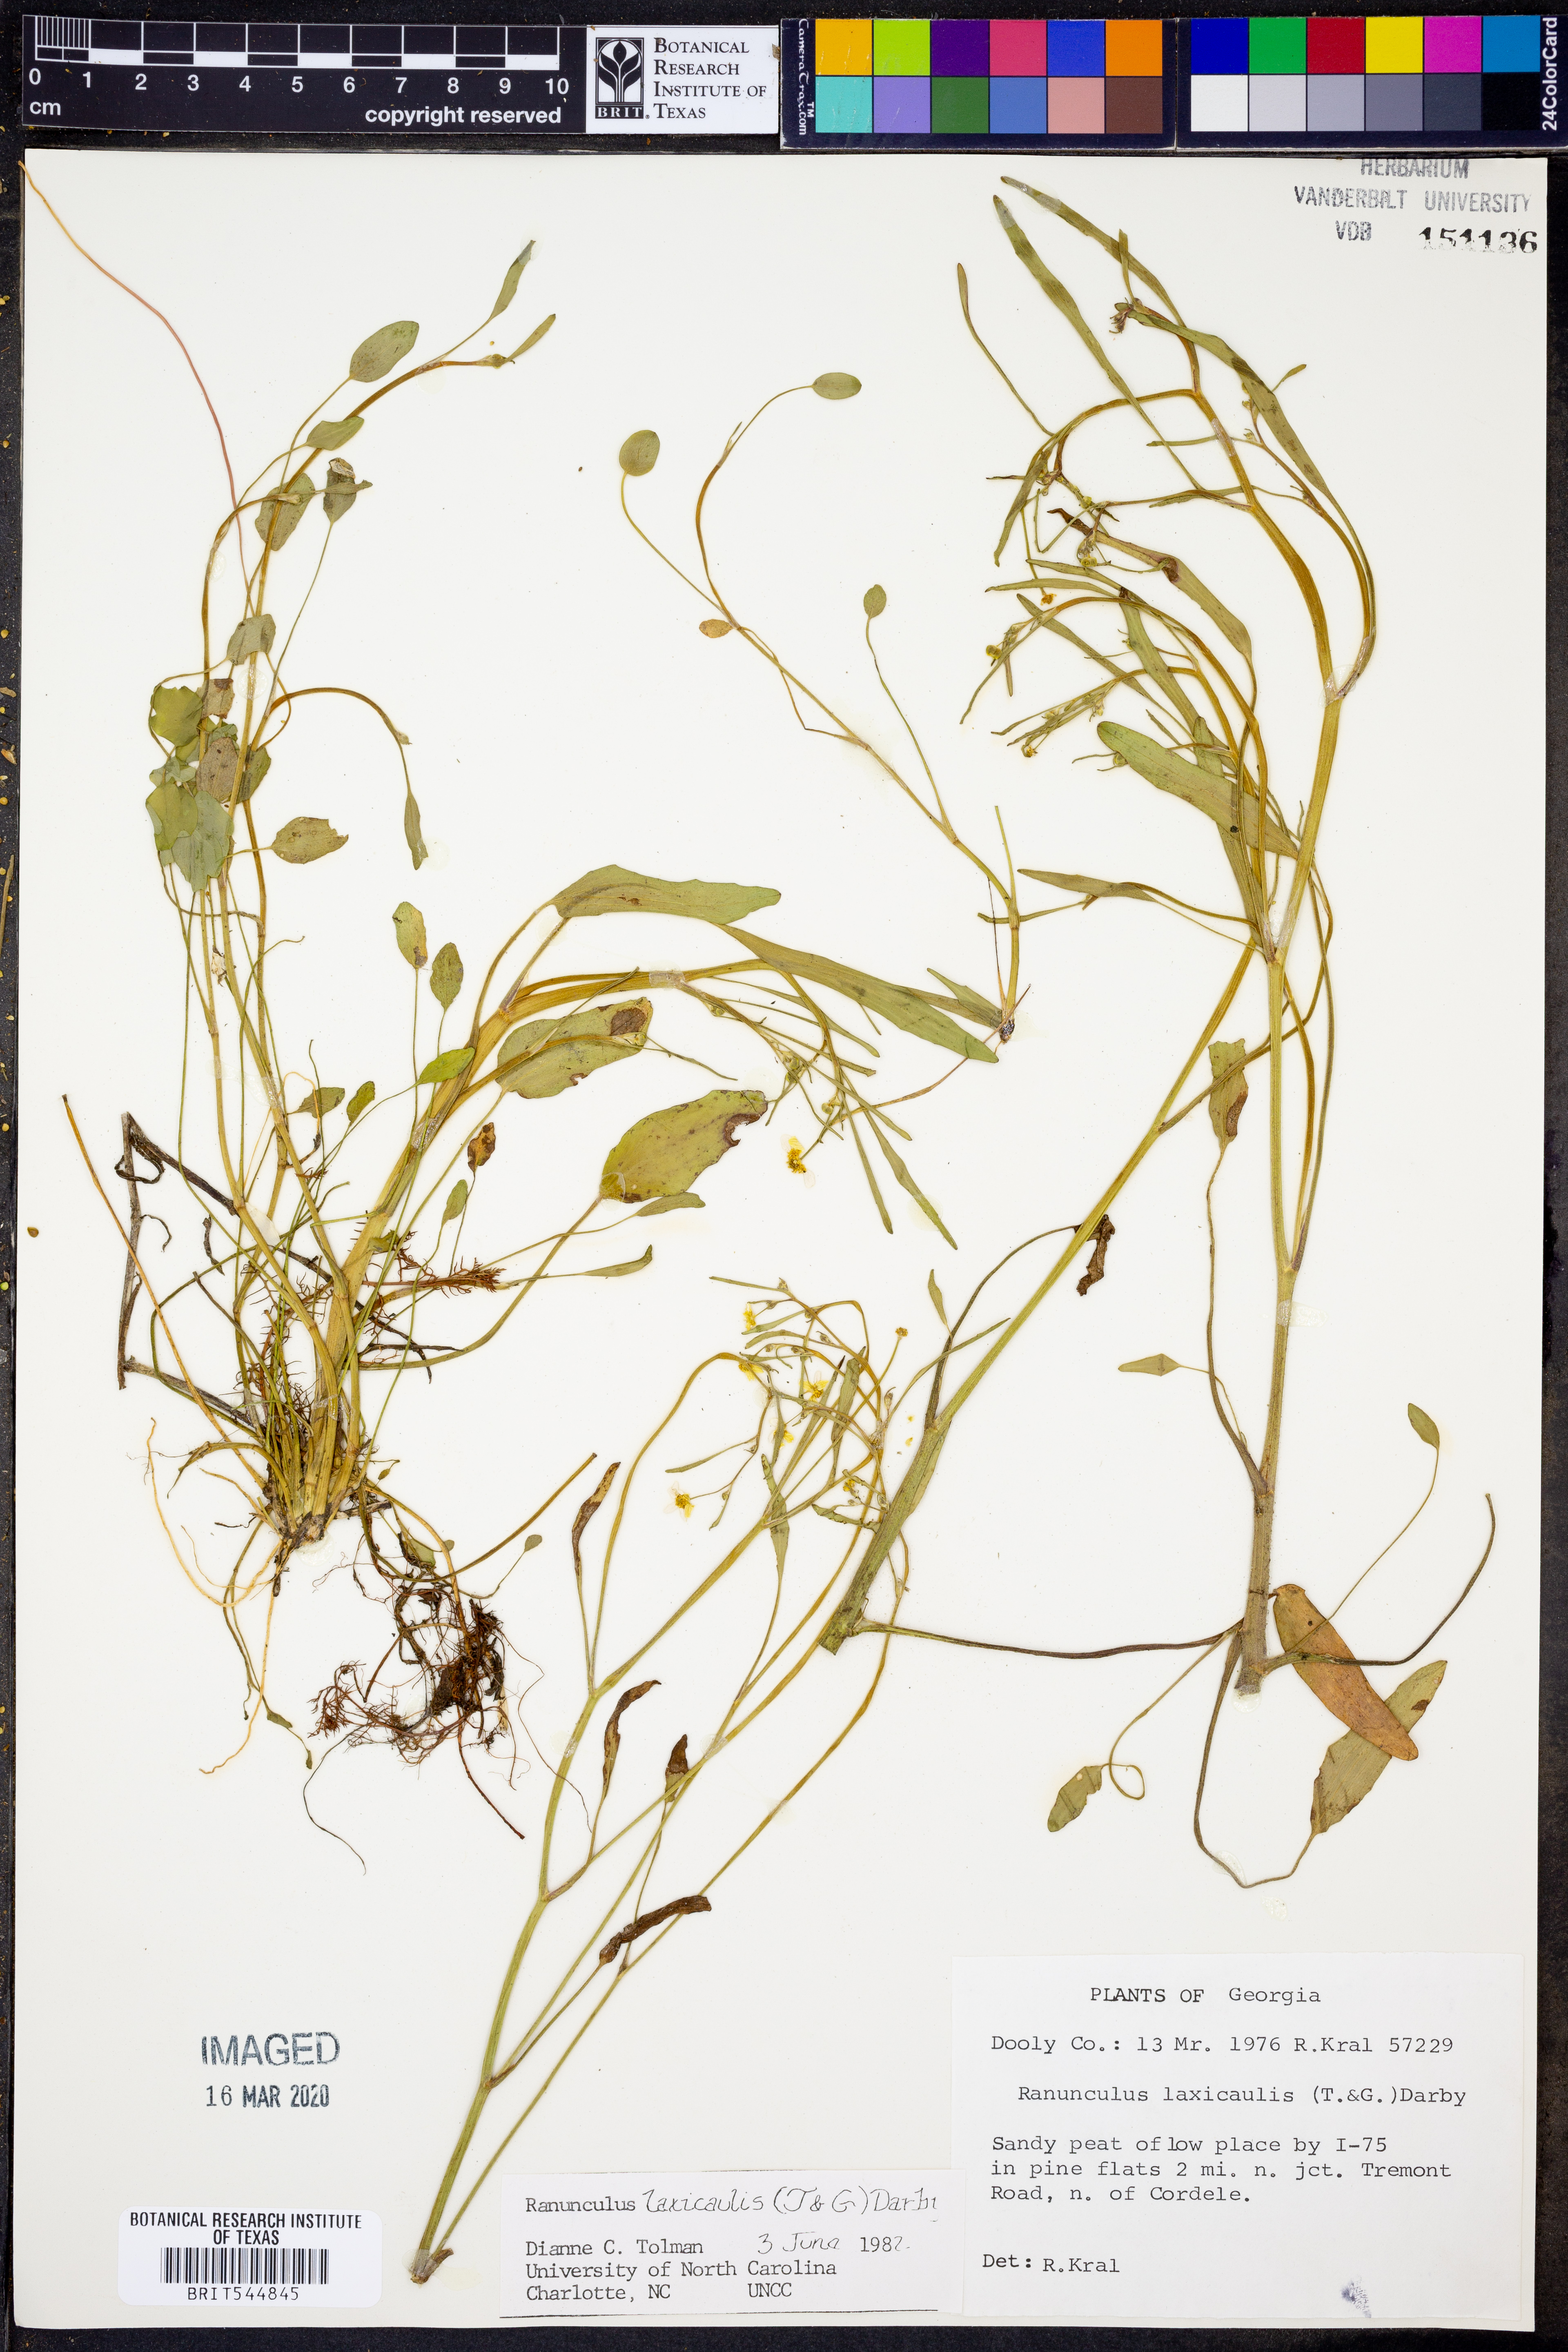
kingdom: Plantae
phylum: Tracheophyta
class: Magnoliopsida
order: Ranunculales
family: Ranunculaceae
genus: Ranunculus
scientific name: Ranunculus laxicaulis
